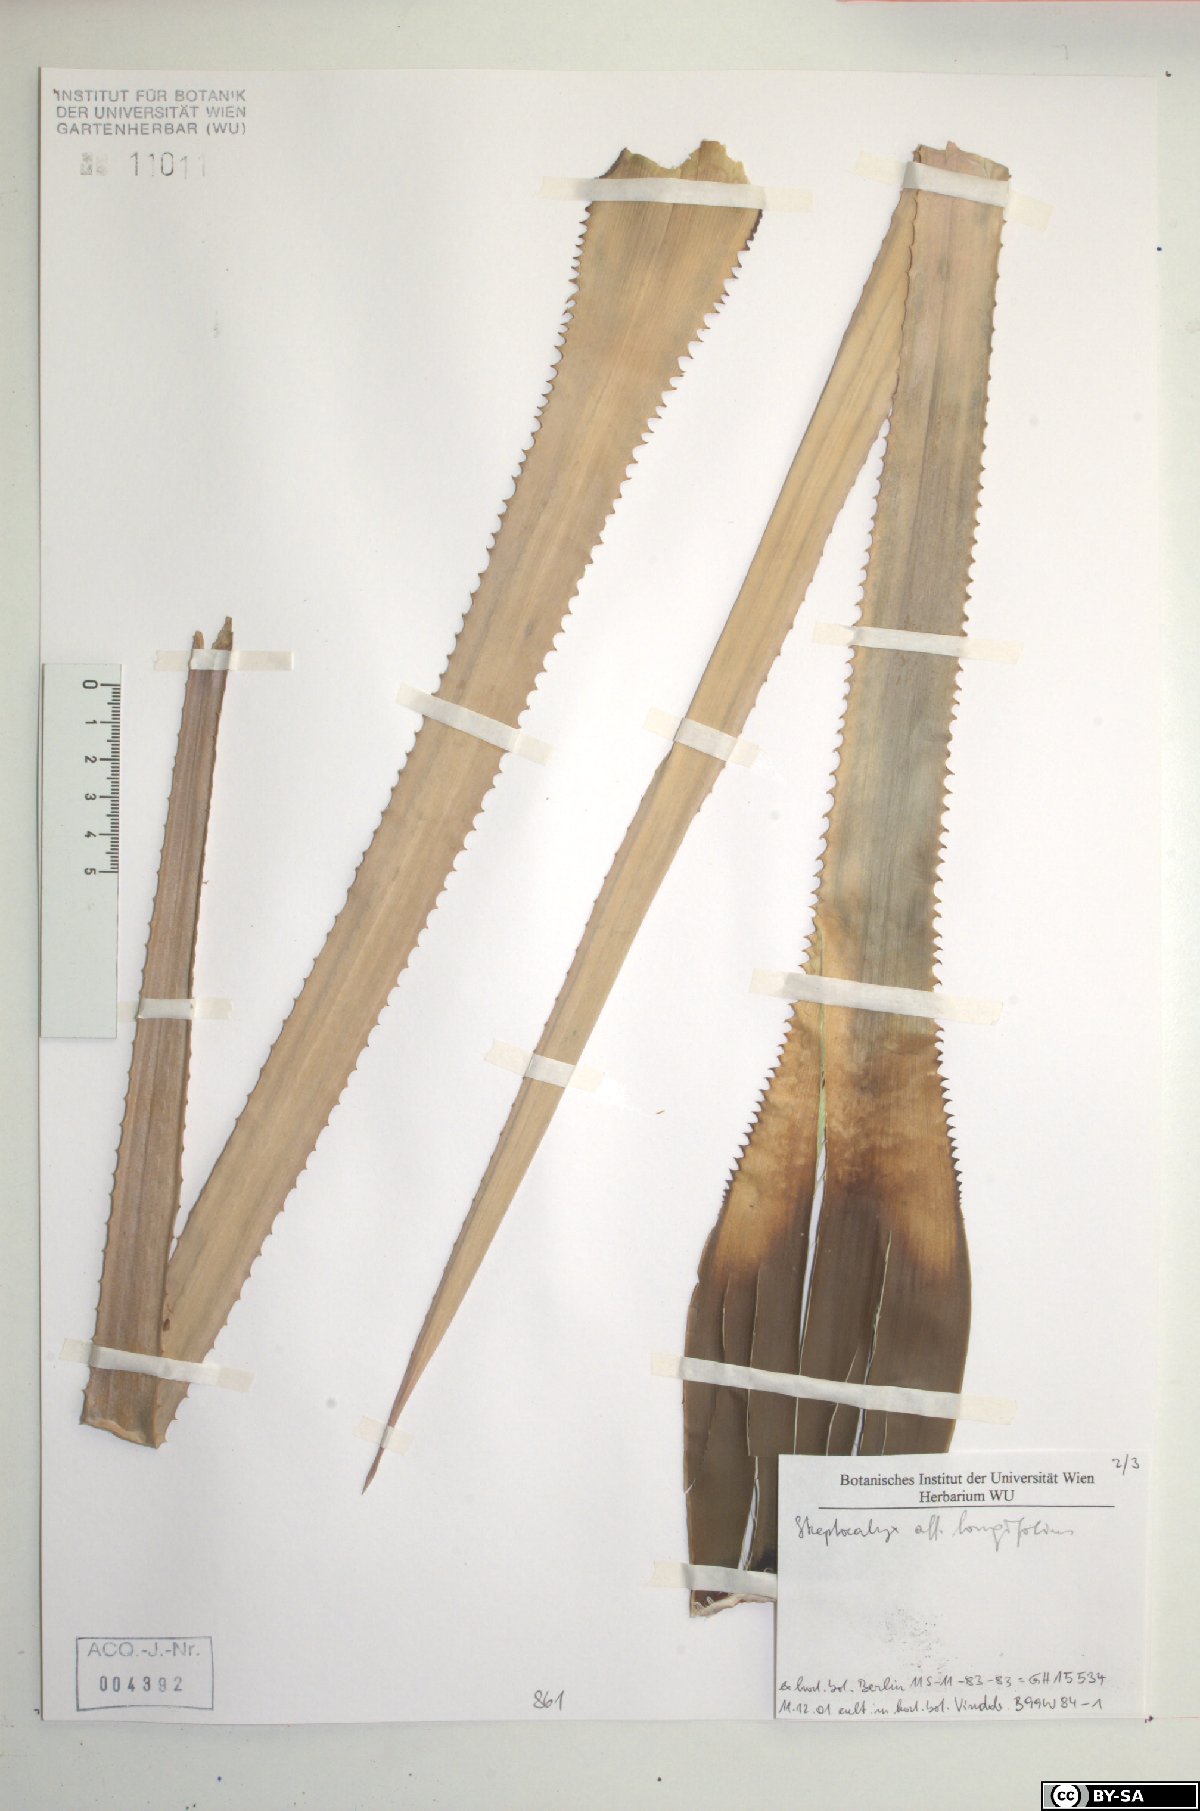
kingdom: Plantae
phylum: Tracheophyta
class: Liliopsida
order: Poales
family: Bromeliaceae
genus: Aechmea
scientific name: Aechmea longifolia
